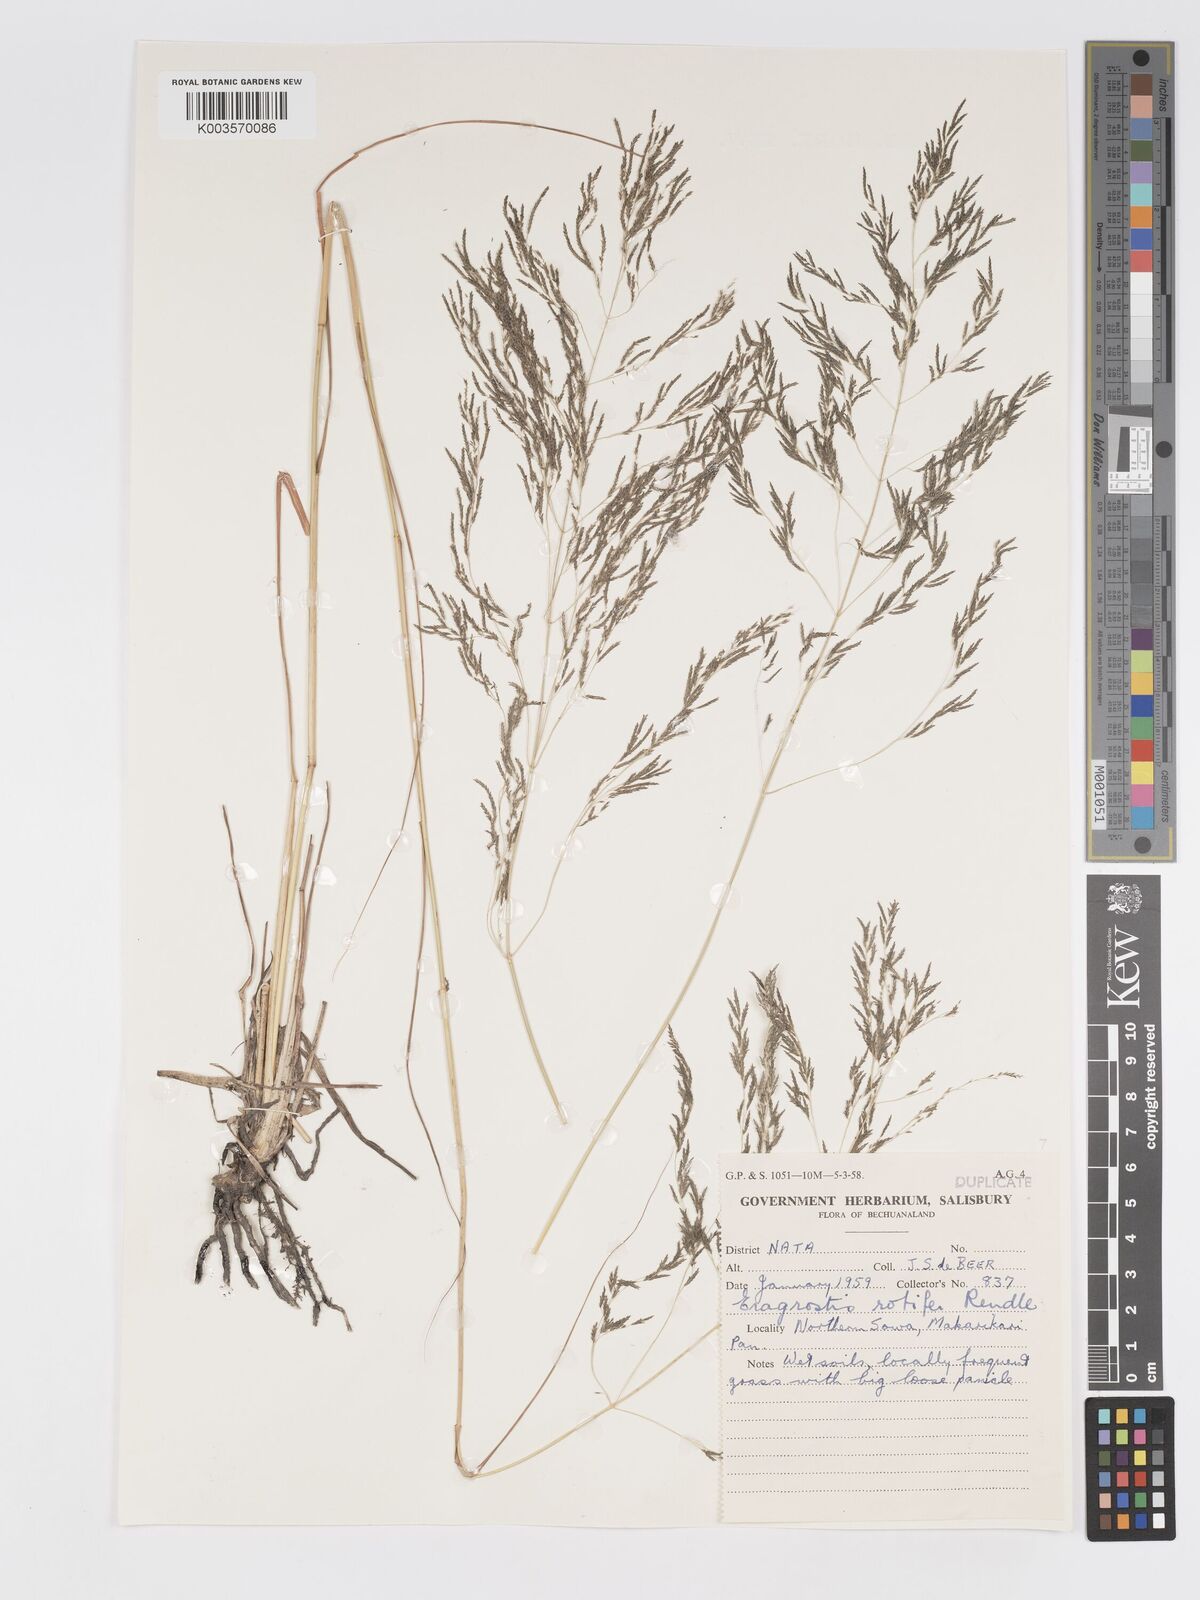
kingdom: Plantae
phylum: Tracheophyta
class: Liliopsida
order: Poales
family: Poaceae
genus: Eragrostis
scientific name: Eragrostis rotifer
